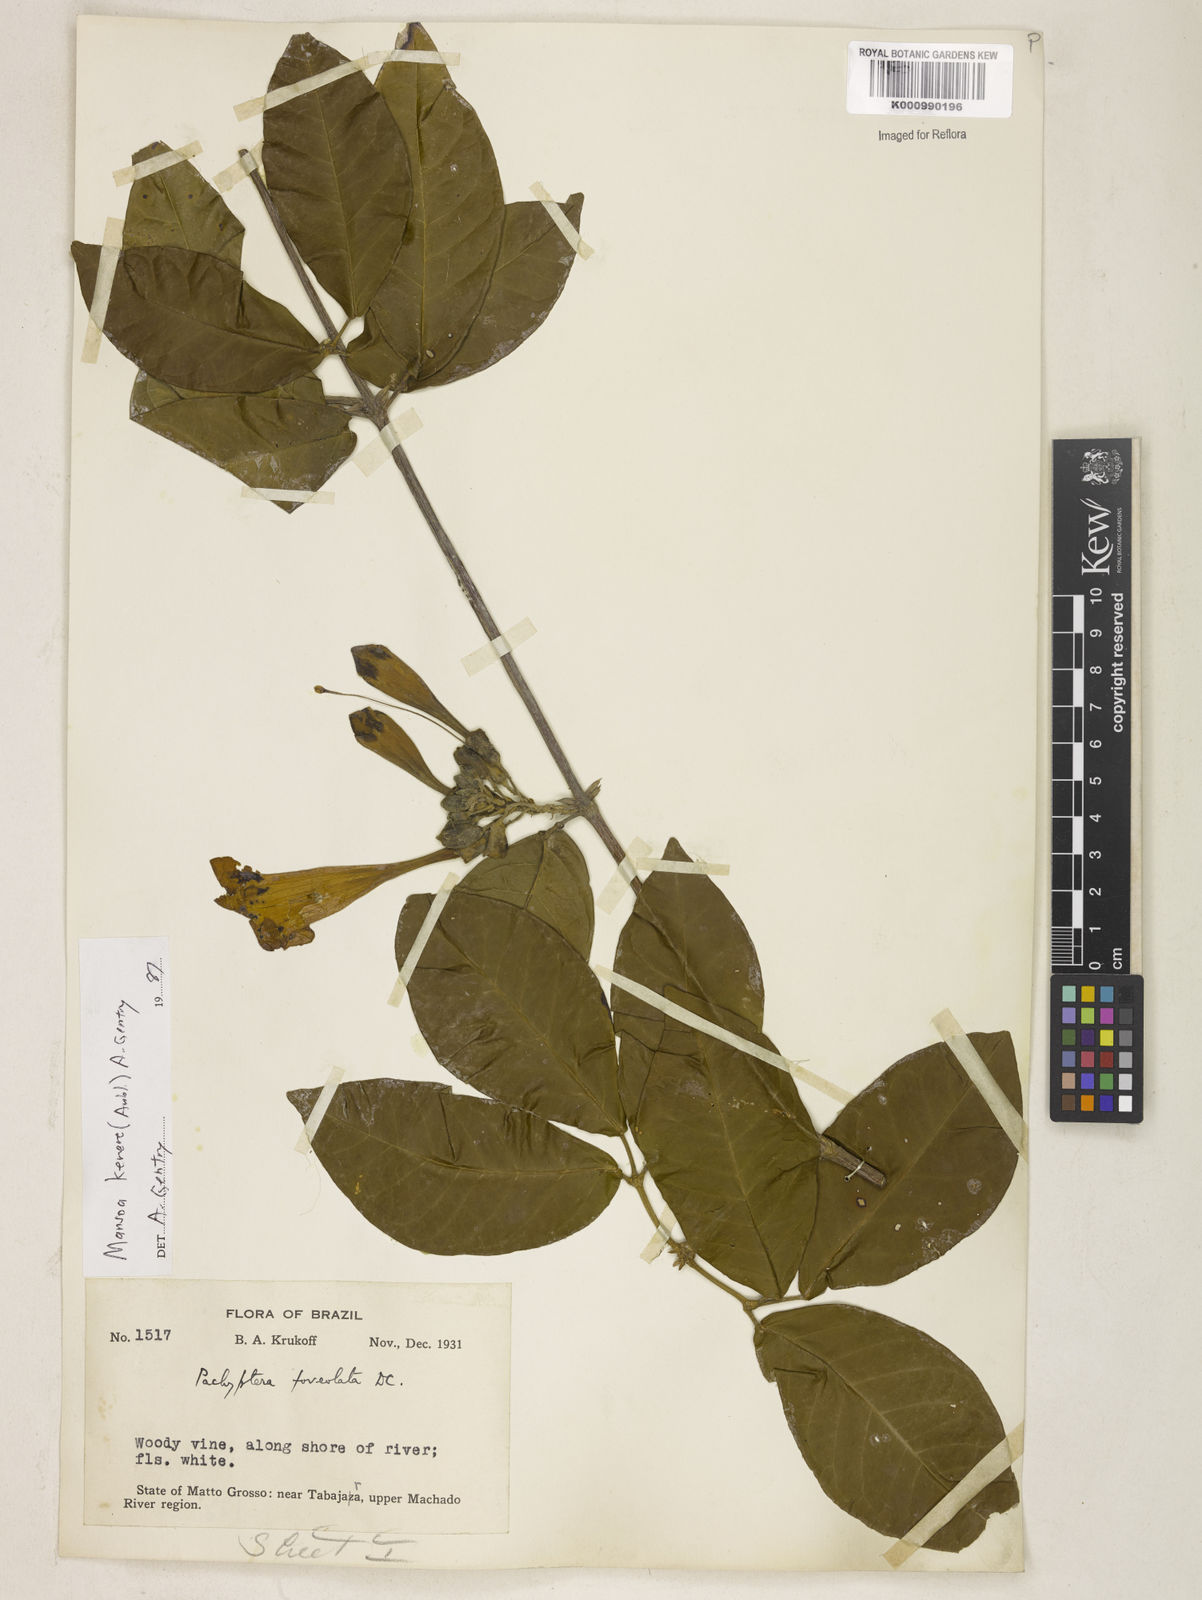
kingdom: Plantae
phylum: Tracheophyta
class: Magnoliopsida
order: Lamiales
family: Bignoniaceae
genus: Pachyptera
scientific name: Pachyptera kerere
